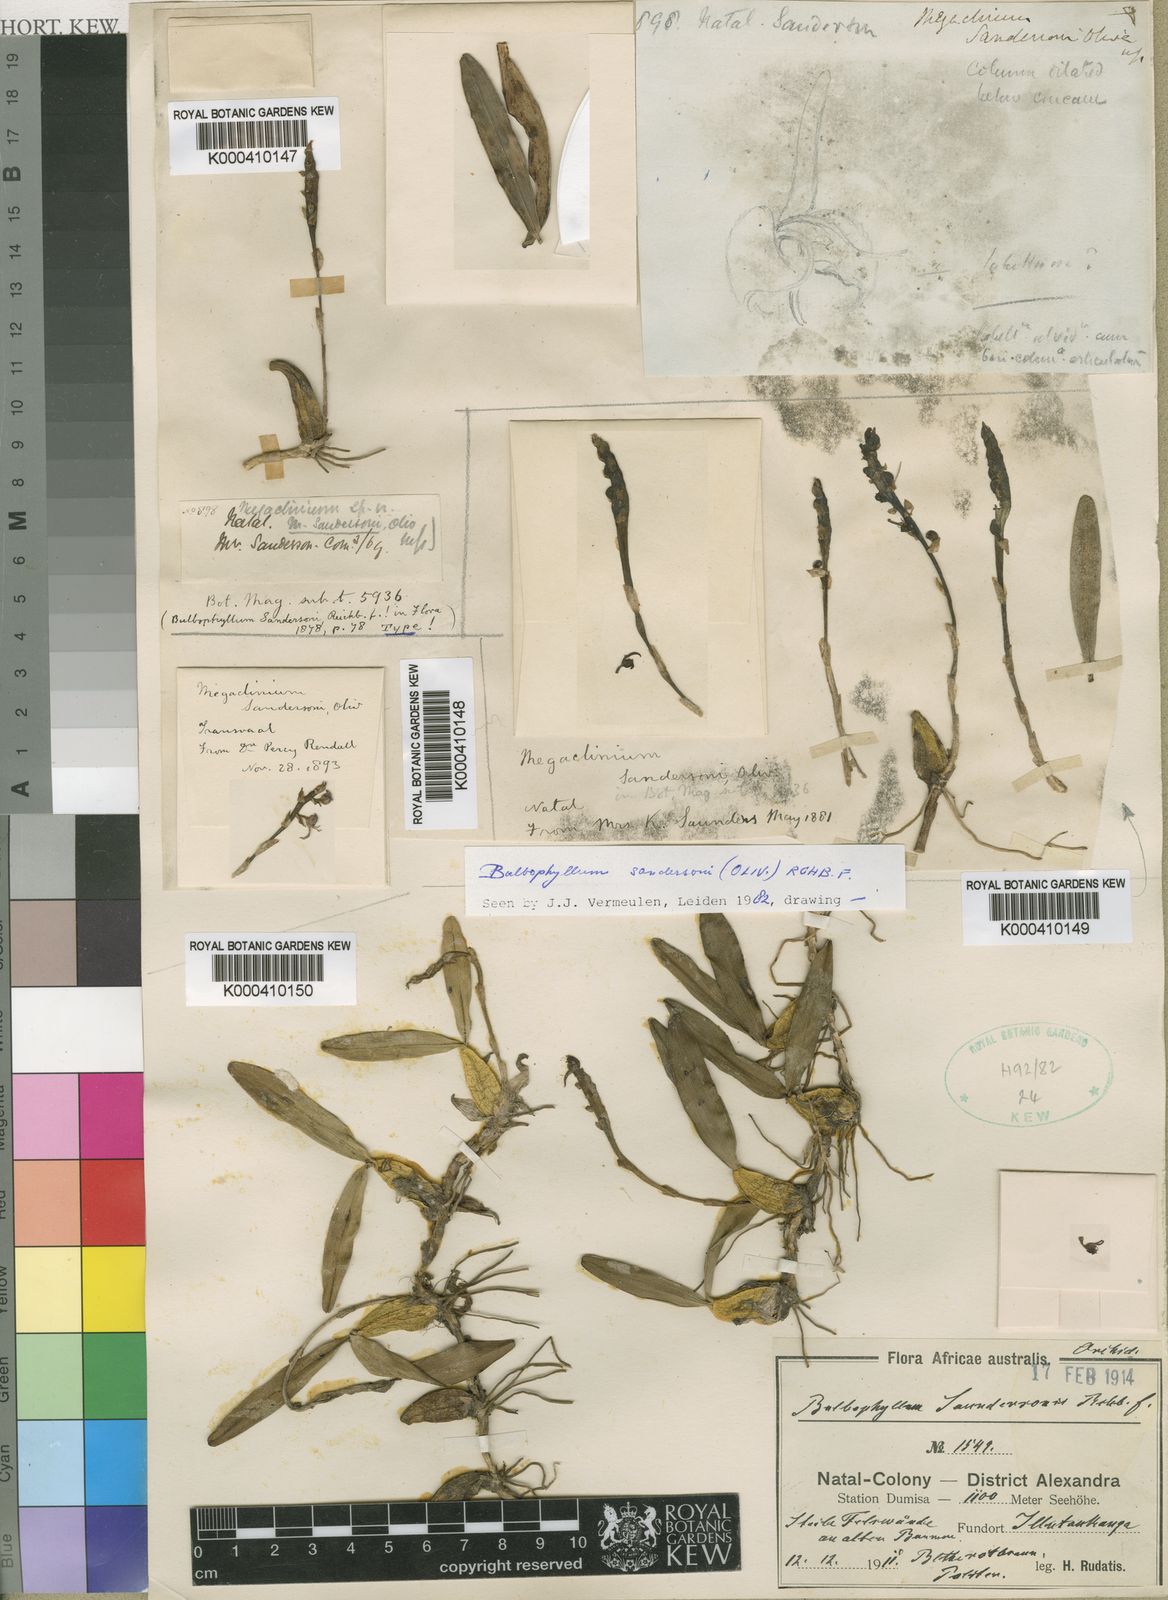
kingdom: Plantae
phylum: Tracheophyta
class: Liliopsida
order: Asparagales
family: Orchidaceae
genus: Bulbophyllum
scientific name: Bulbophyllum sandersonii
